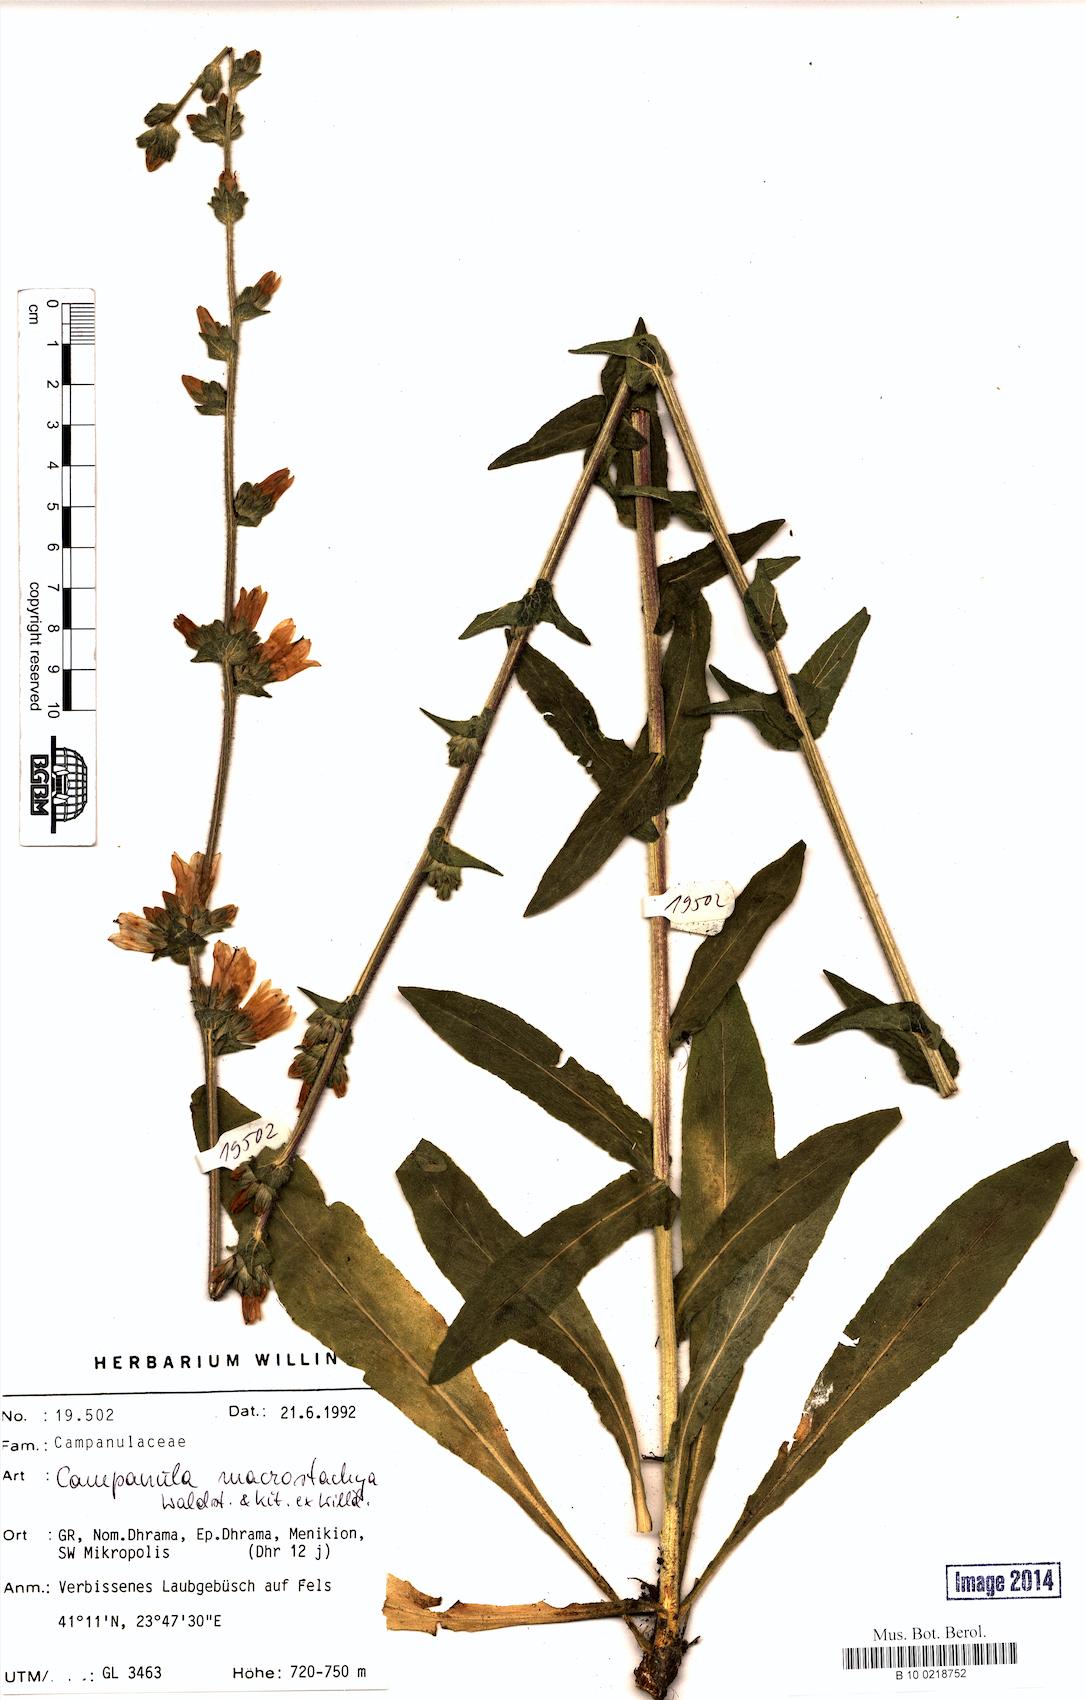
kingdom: Plantae
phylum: Tracheophyta
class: Magnoliopsida
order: Asterales
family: Campanulaceae
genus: Campanula
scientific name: Campanula macrostachya
